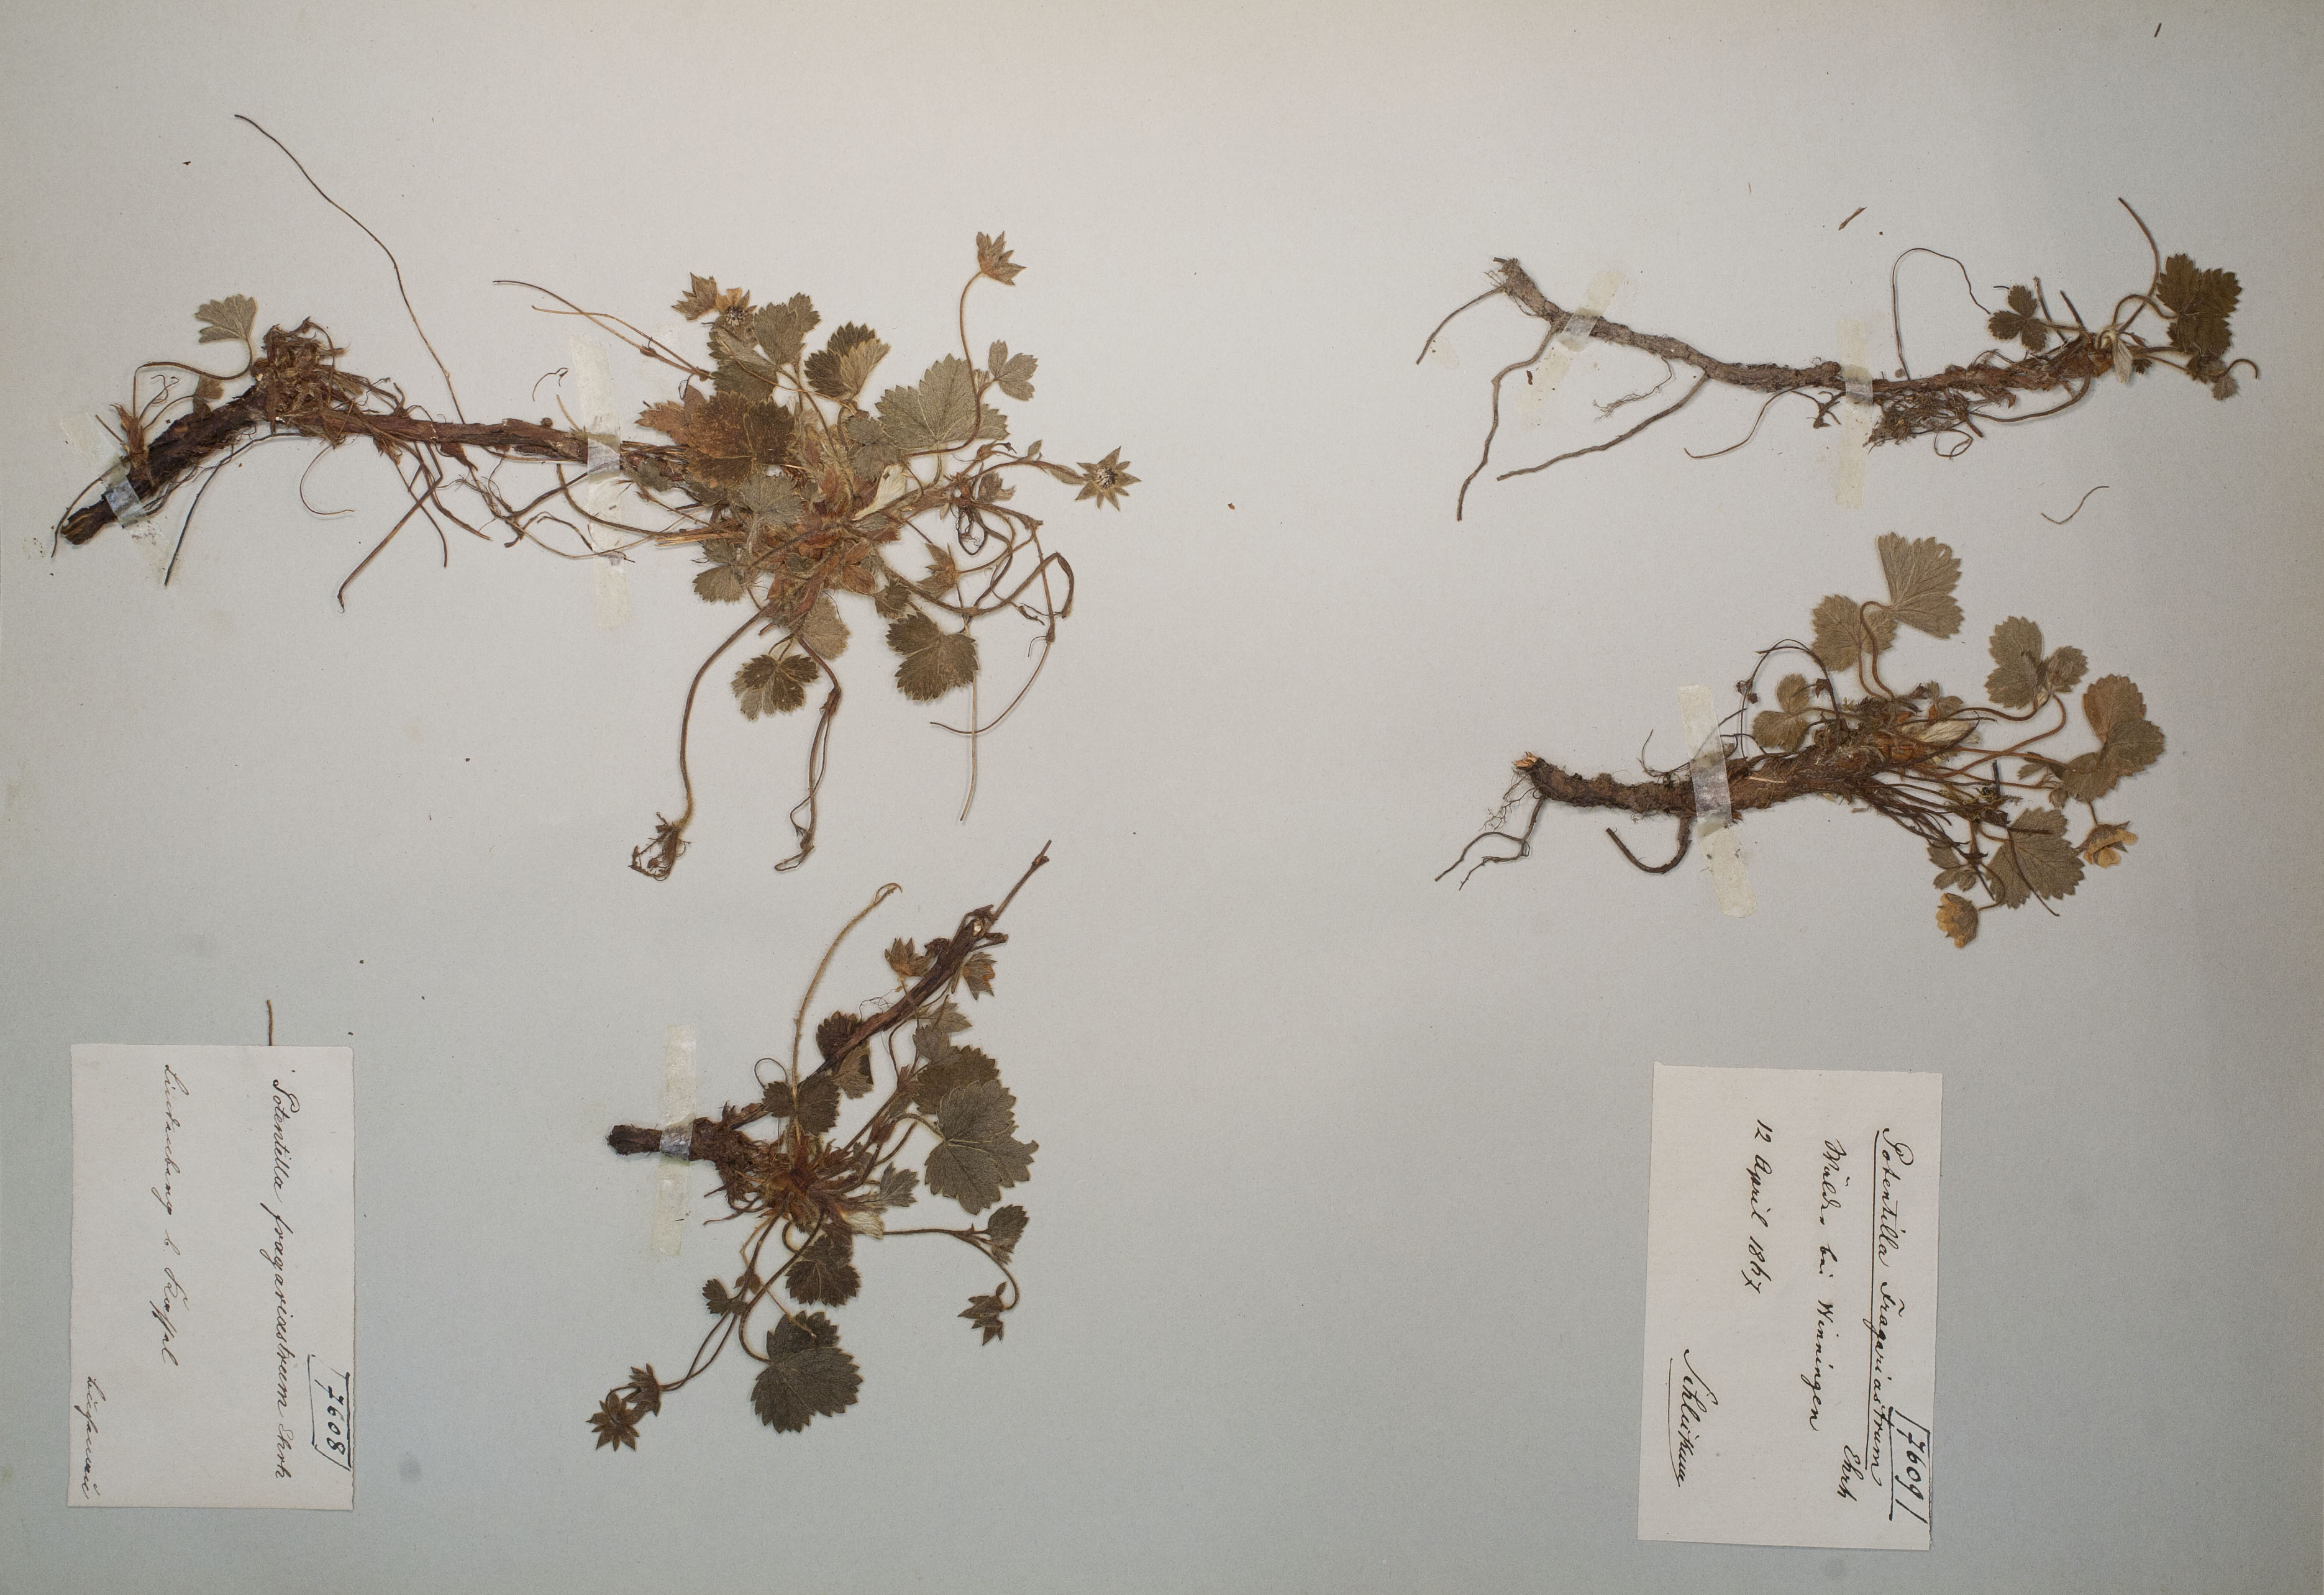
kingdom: Plantae
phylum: Tracheophyta
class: Magnoliopsida
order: Rosales
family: Rosaceae
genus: Potentilla
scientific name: Potentilla sterilis
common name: Barren strawberry
